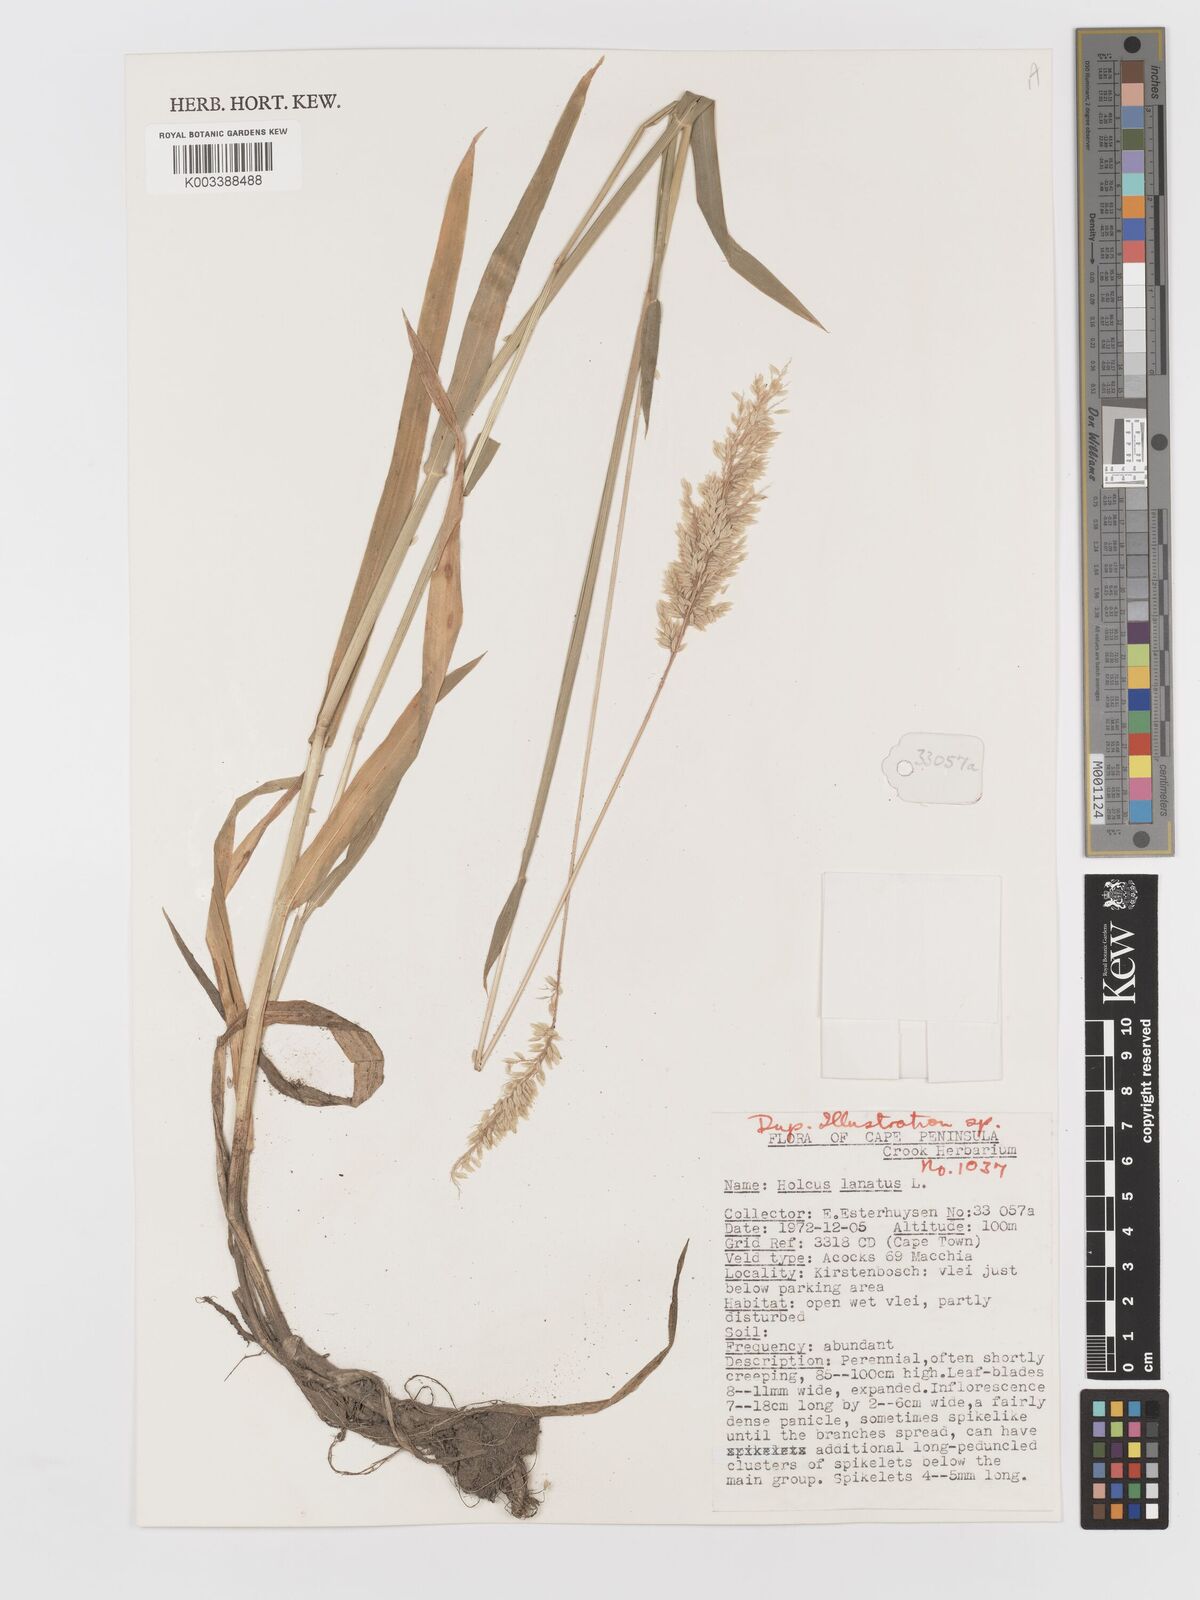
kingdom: Plantae
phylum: Tracheophyta
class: Liliopsida
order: Poales
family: Poaceae
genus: Holcus
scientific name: Holcus lanatus
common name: Yorkshire-fog
